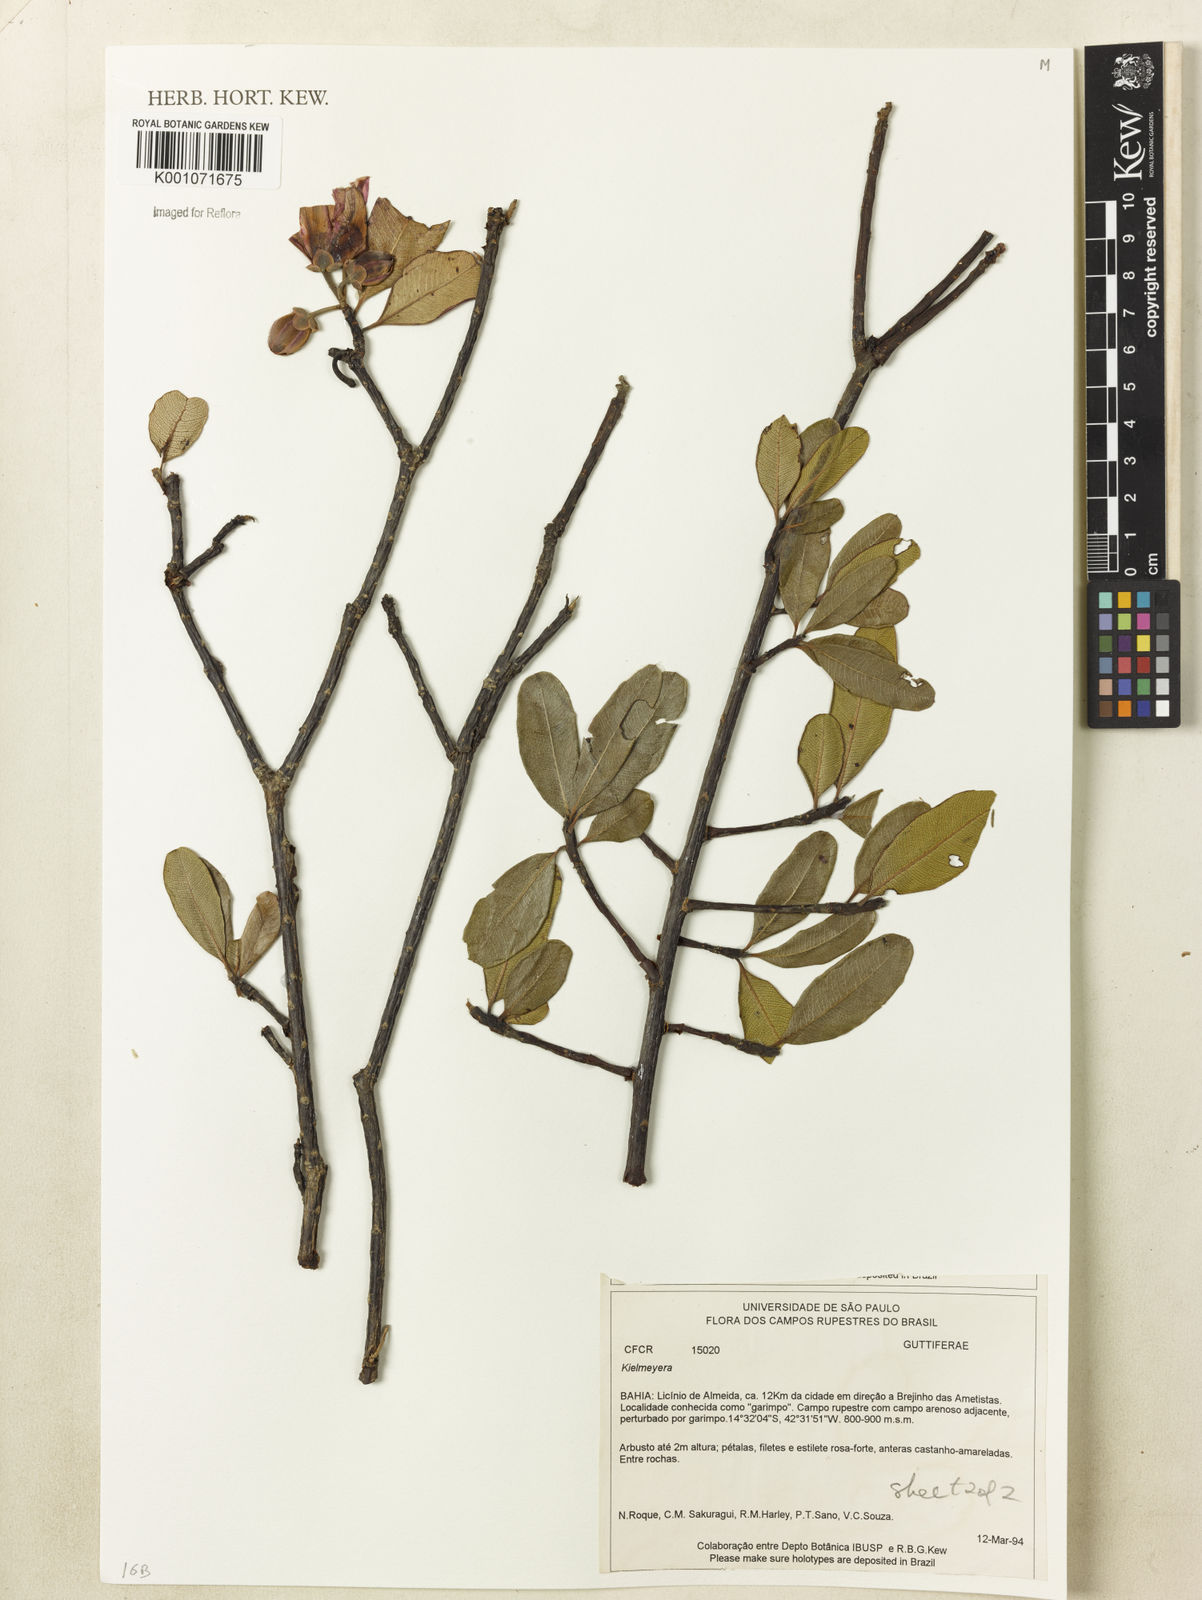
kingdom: Plantae
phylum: Tracheophyta
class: Magnoliopsida
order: Malpighiales
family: Calophyllaceae
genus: Kielmeyera
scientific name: Kielmeyera
